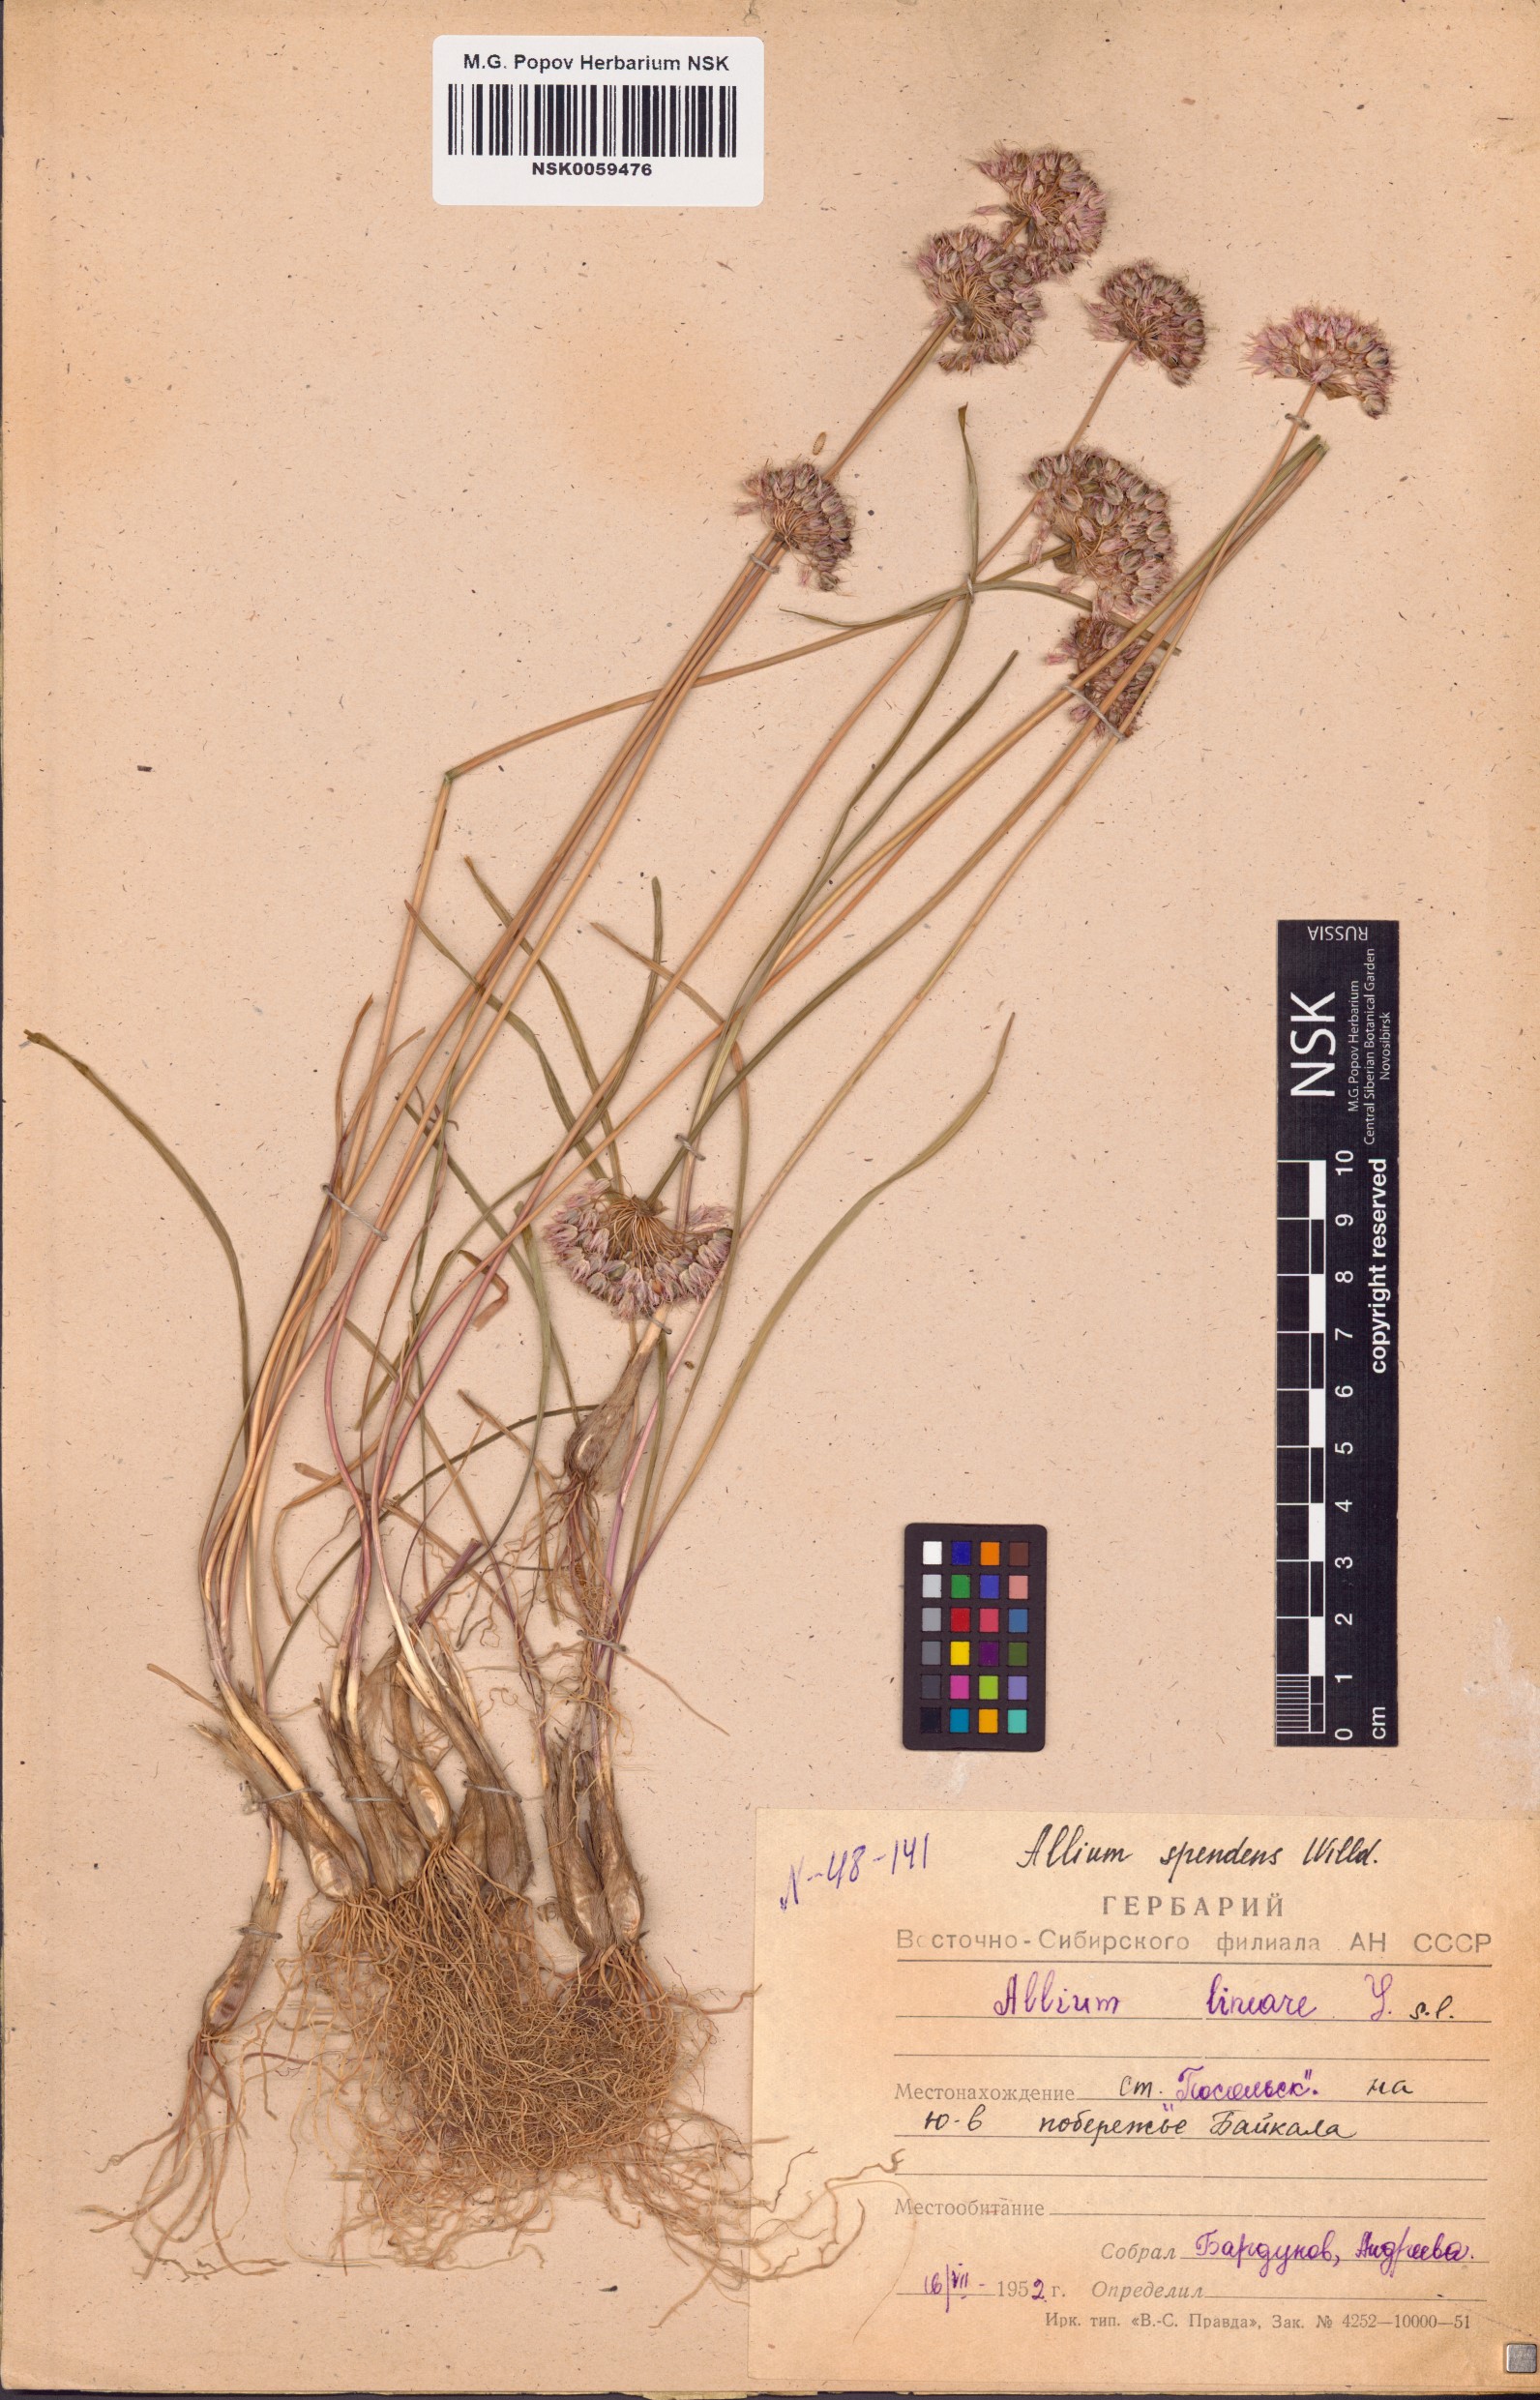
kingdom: Plantae
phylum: Tracheophyta
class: Liliopsida
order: Asparagales
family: Amaryllidaceae
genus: Allium
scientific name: Allium splendens
